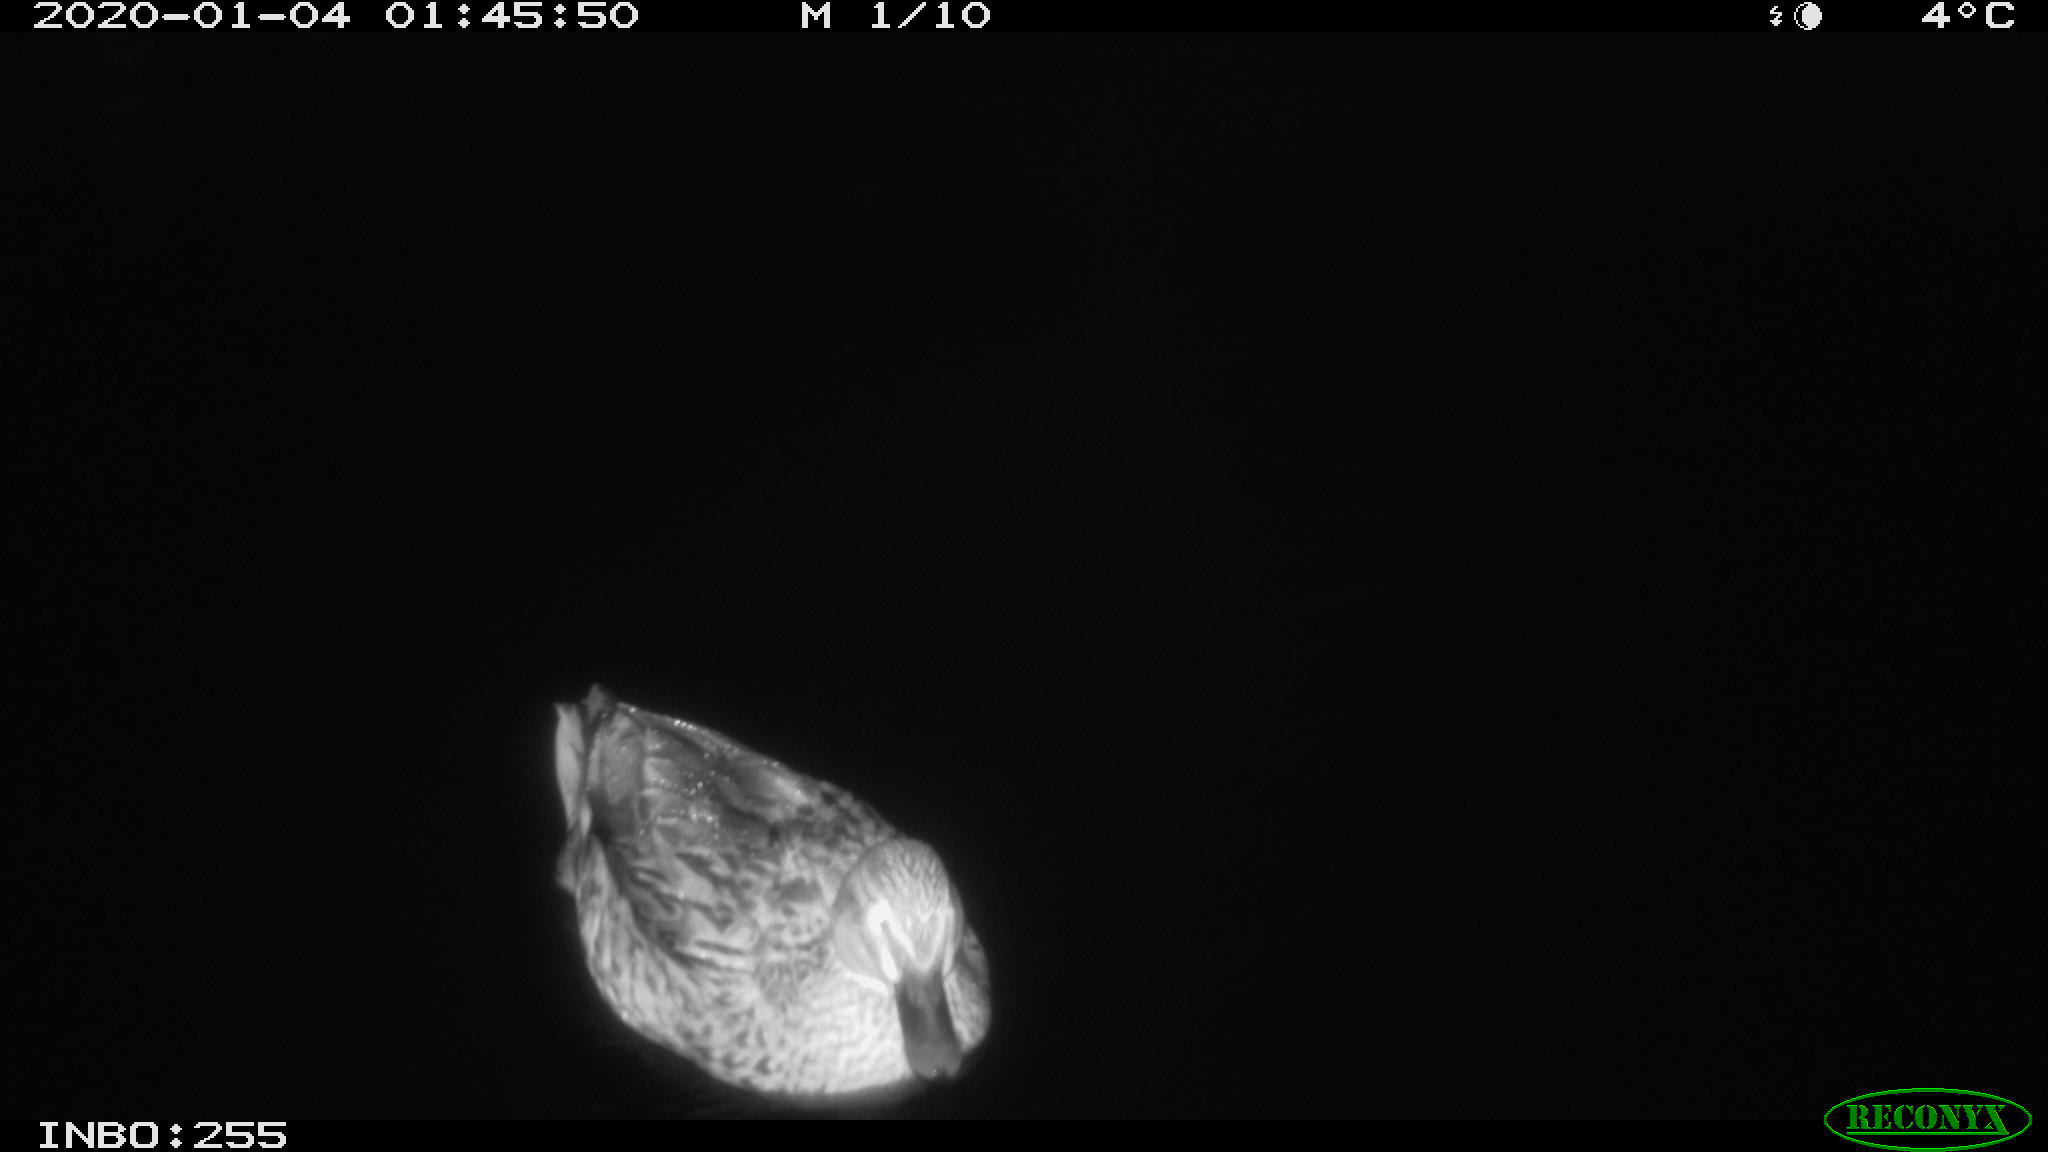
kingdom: Animalia
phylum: Chordata
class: Aves
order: Anseriformes
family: Anatidae
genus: Anas
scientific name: Anas platyrhynchos
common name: Mallard
